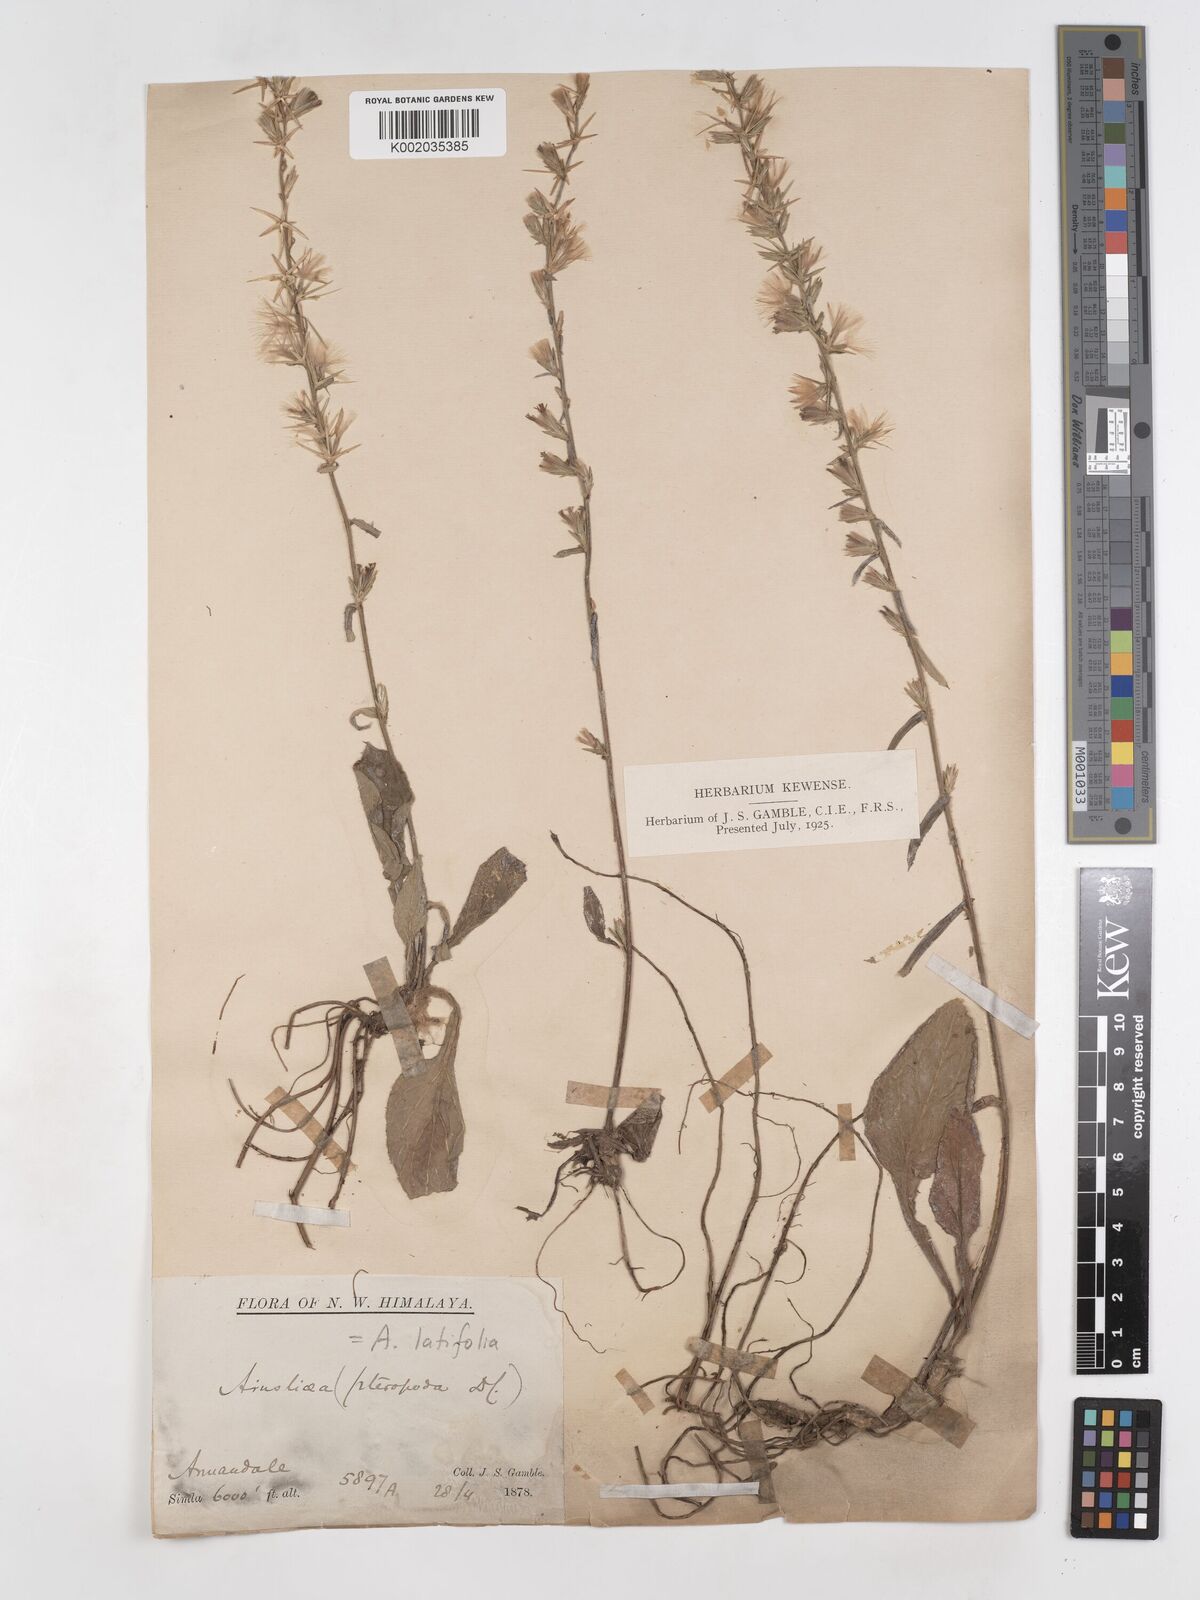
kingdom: Plantae
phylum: Tracheophyta
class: Magnoliopsida
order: Asterales
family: Asteraceae
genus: Ainsliaea
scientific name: Ainsliaea latifolia
